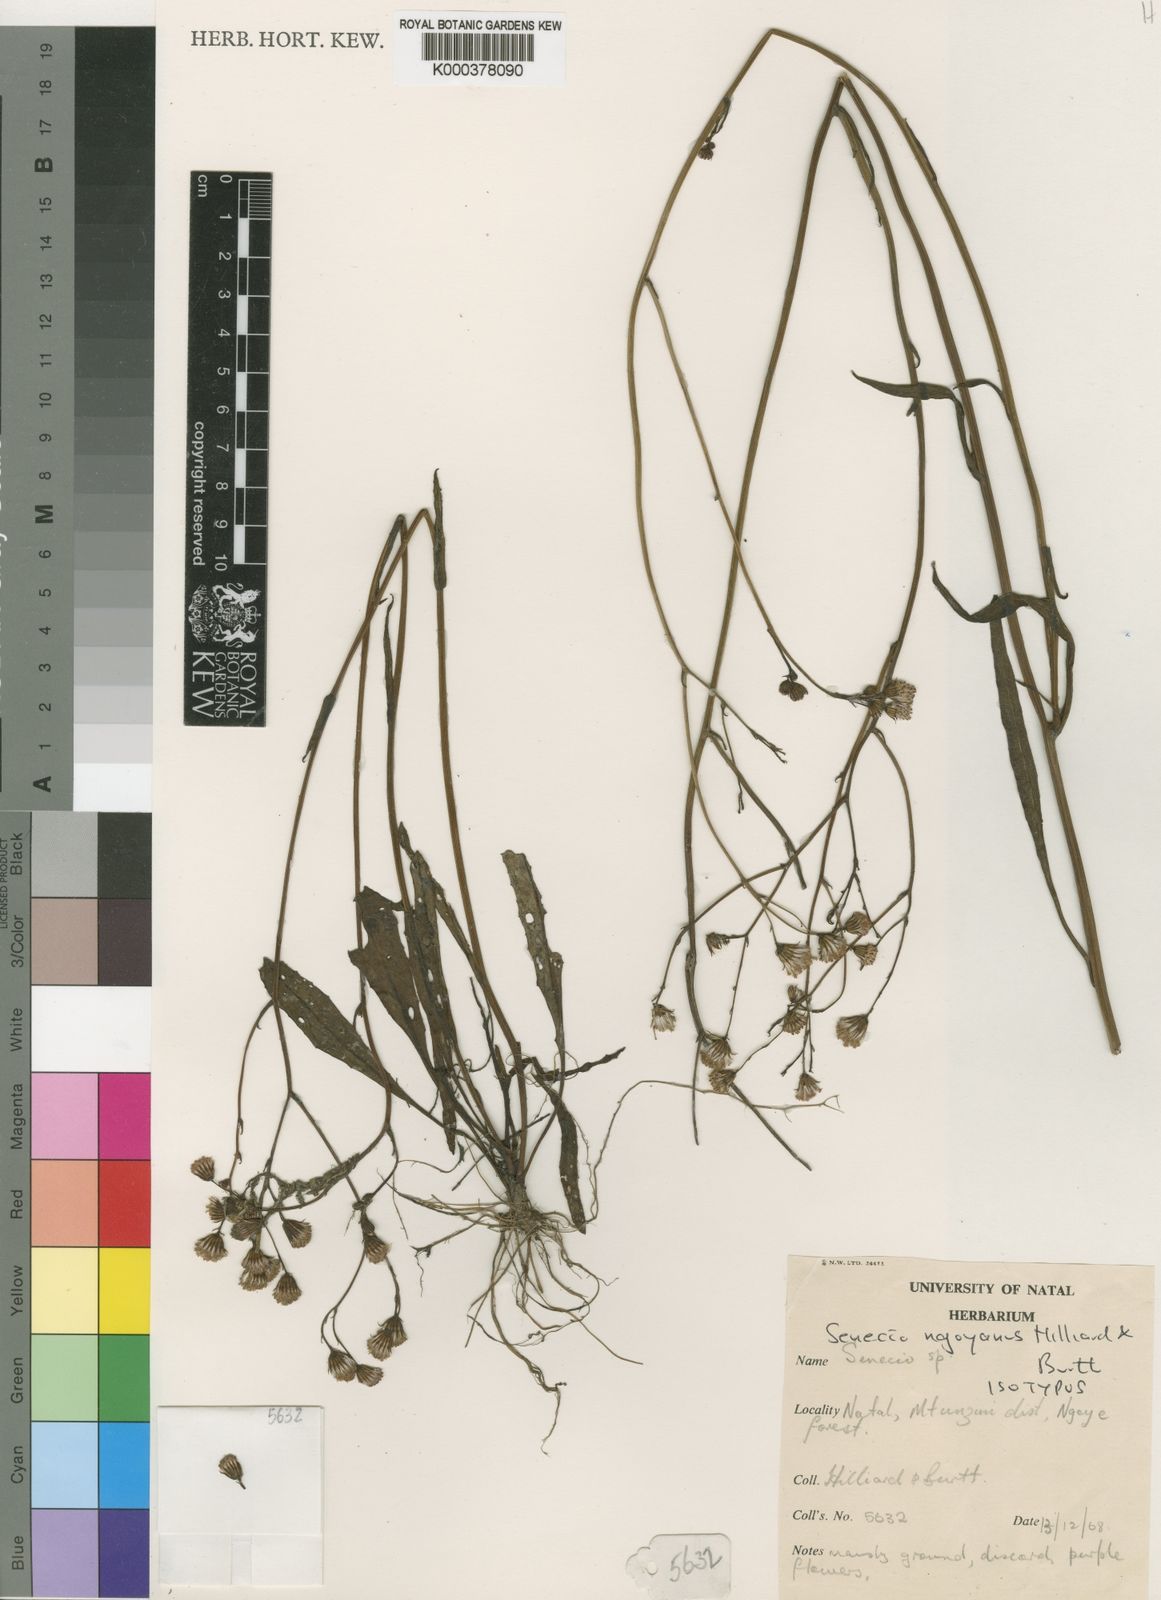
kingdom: Plantae
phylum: Tracheophyta
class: Magnoliopsida
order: Asterales
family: Asteraceae
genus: Senecio
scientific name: Senecio ngoyanus
